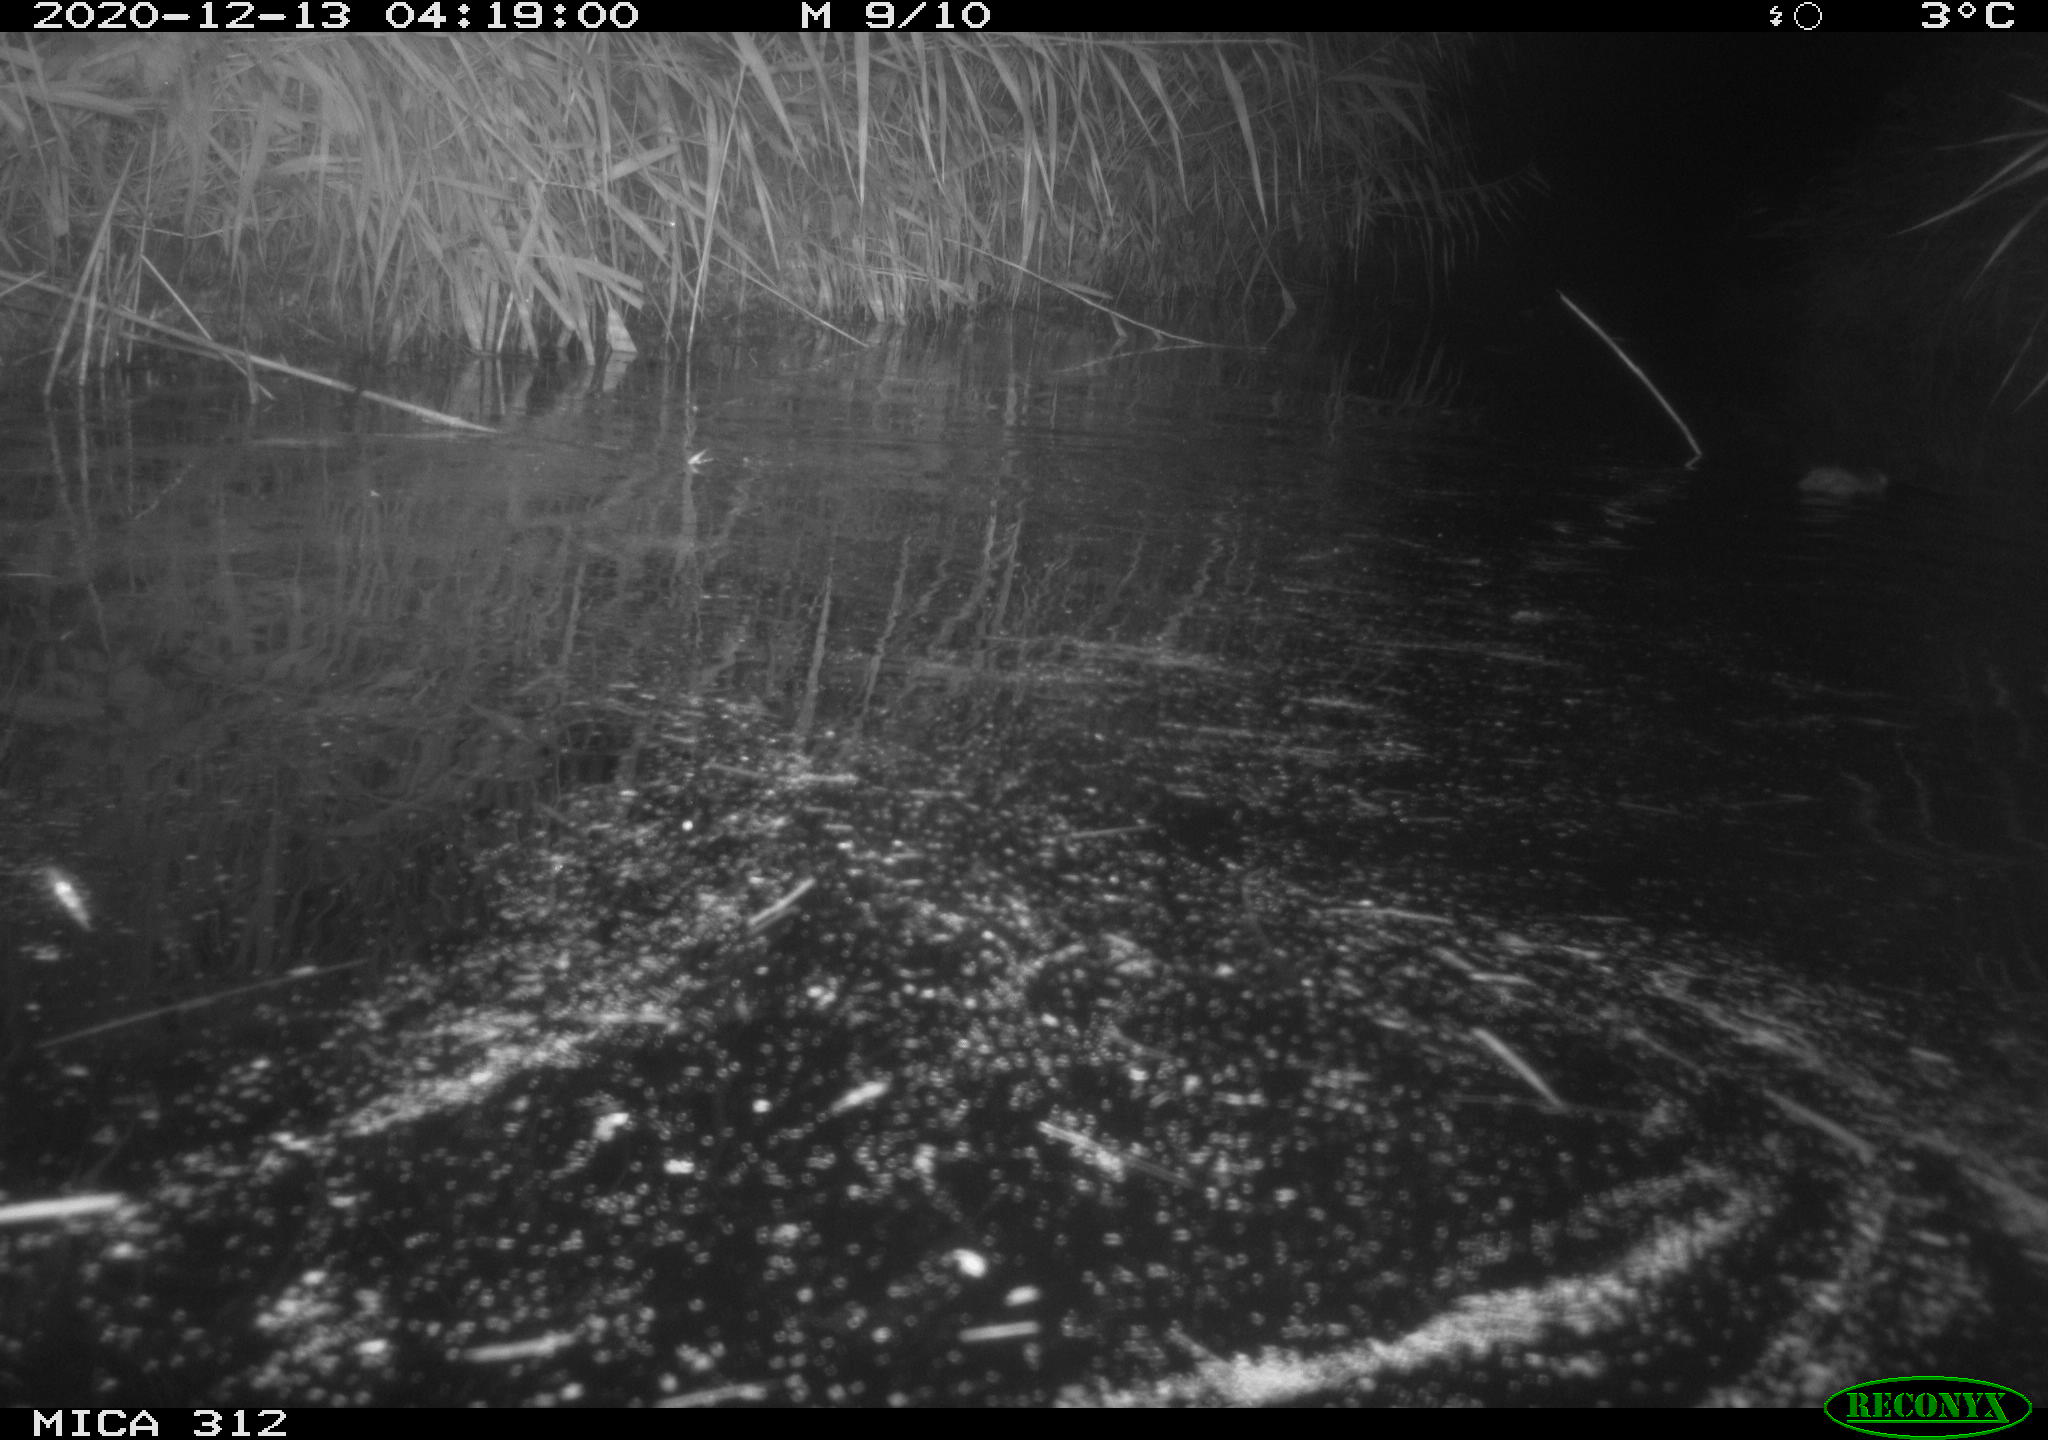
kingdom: Animalia
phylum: Chordata
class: Mammalia
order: Rodentia
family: Muridae
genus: Rattus
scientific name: Rattus norvegicus
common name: Brown rat
